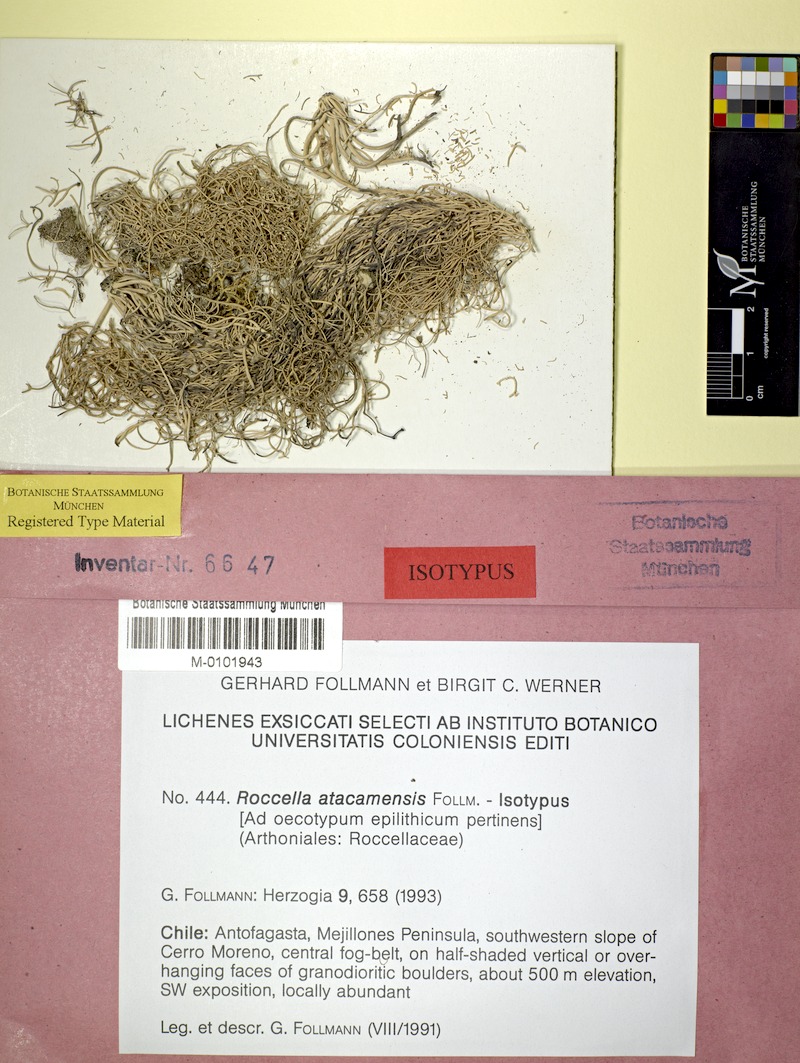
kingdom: Fungi
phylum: Ascomycota
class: Arthoniomycetes
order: Arthoniales
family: Roccellaceae
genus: Roccella
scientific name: Roccella atacamensis
